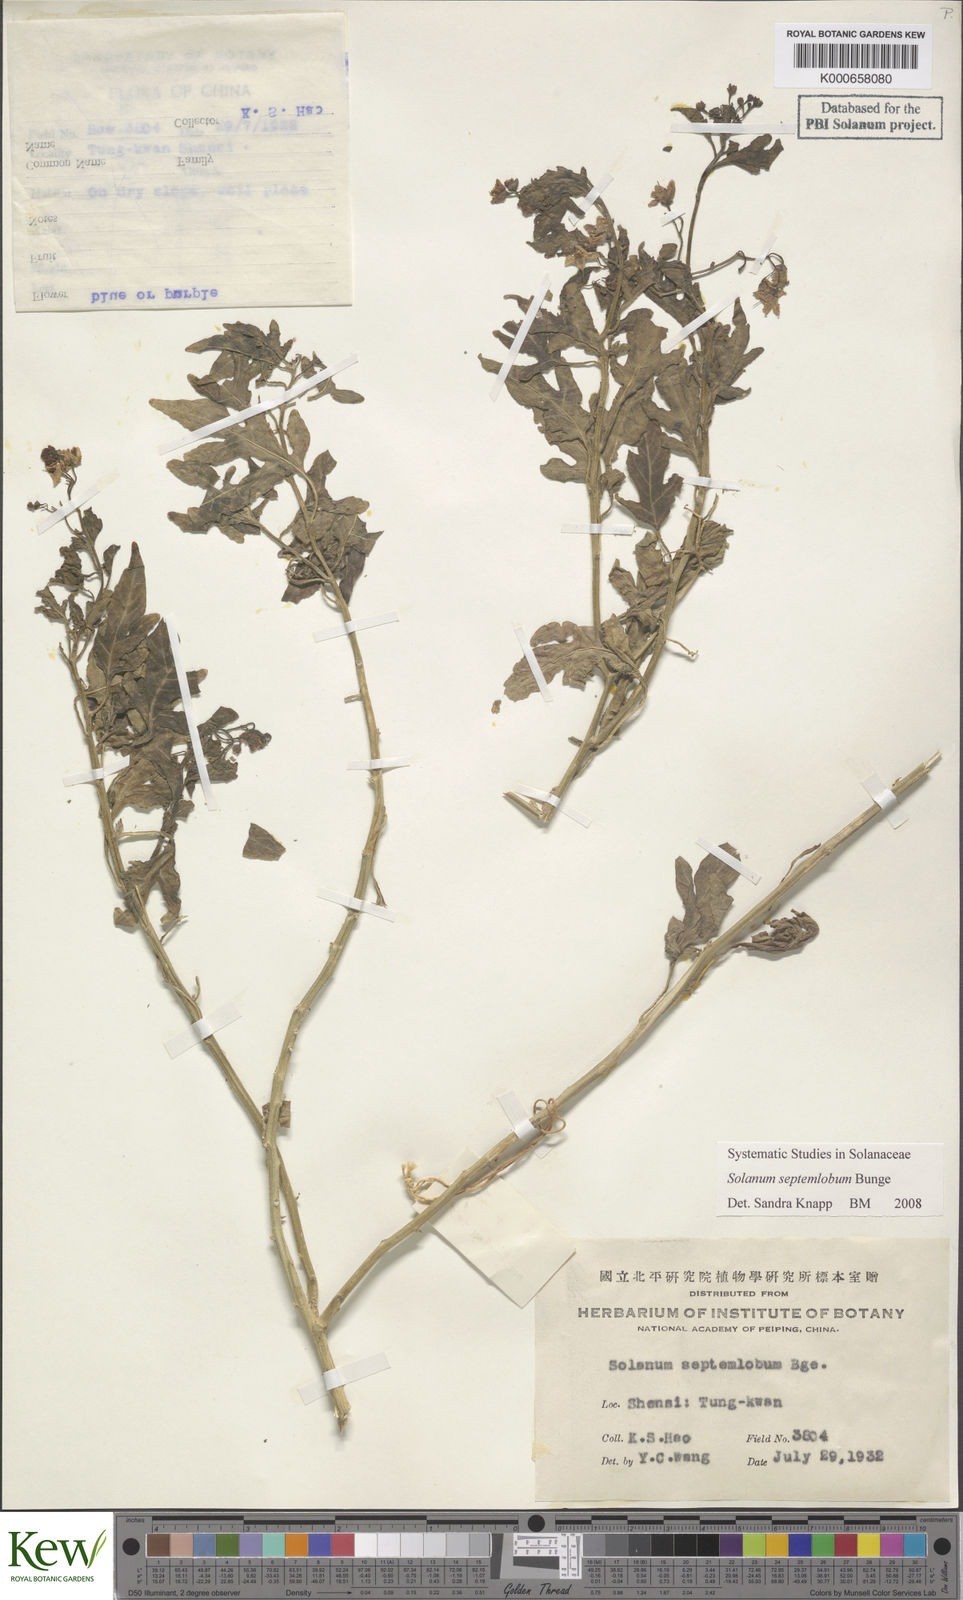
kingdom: Plantae
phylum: Tracheophyta
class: Magnoliopsida
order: Solanales
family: Solanaceae
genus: Solanum
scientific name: Solanum septemlobum
